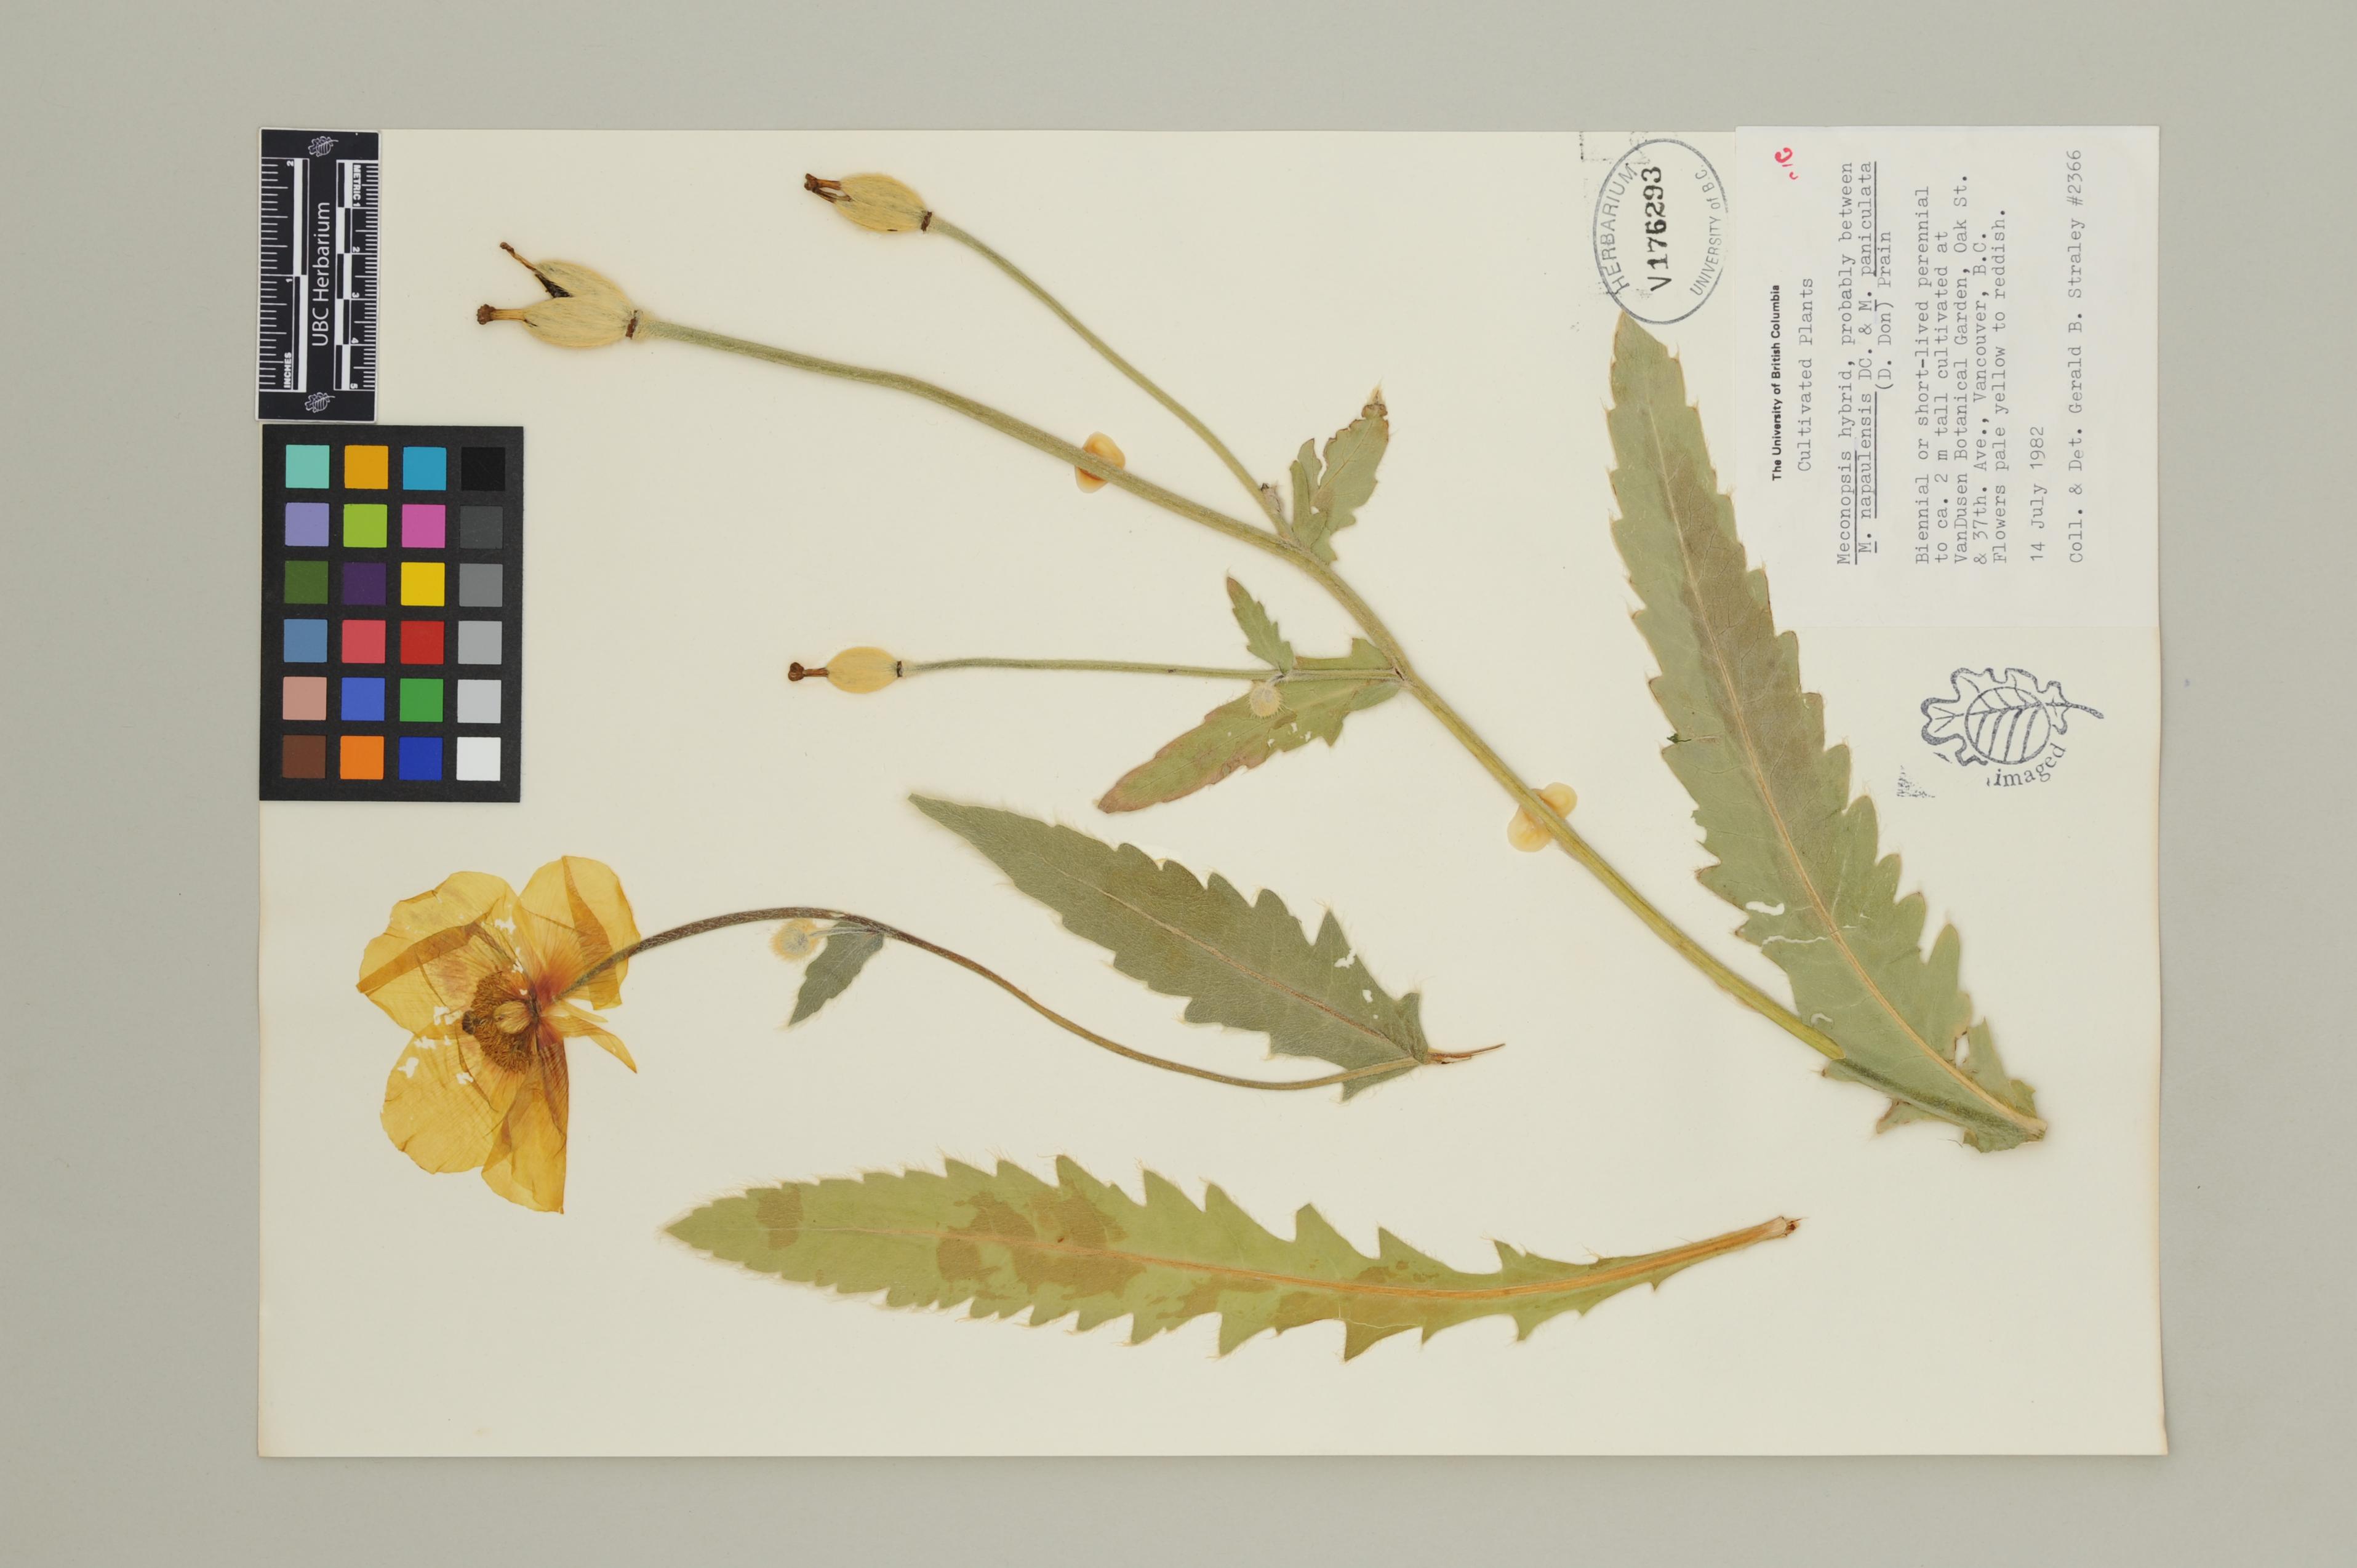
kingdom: Plantae
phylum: Tracheophyta
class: Magnoliopsida
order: Ranunculales
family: Papaveraceae
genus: Meconopsis
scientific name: Meconopsis
